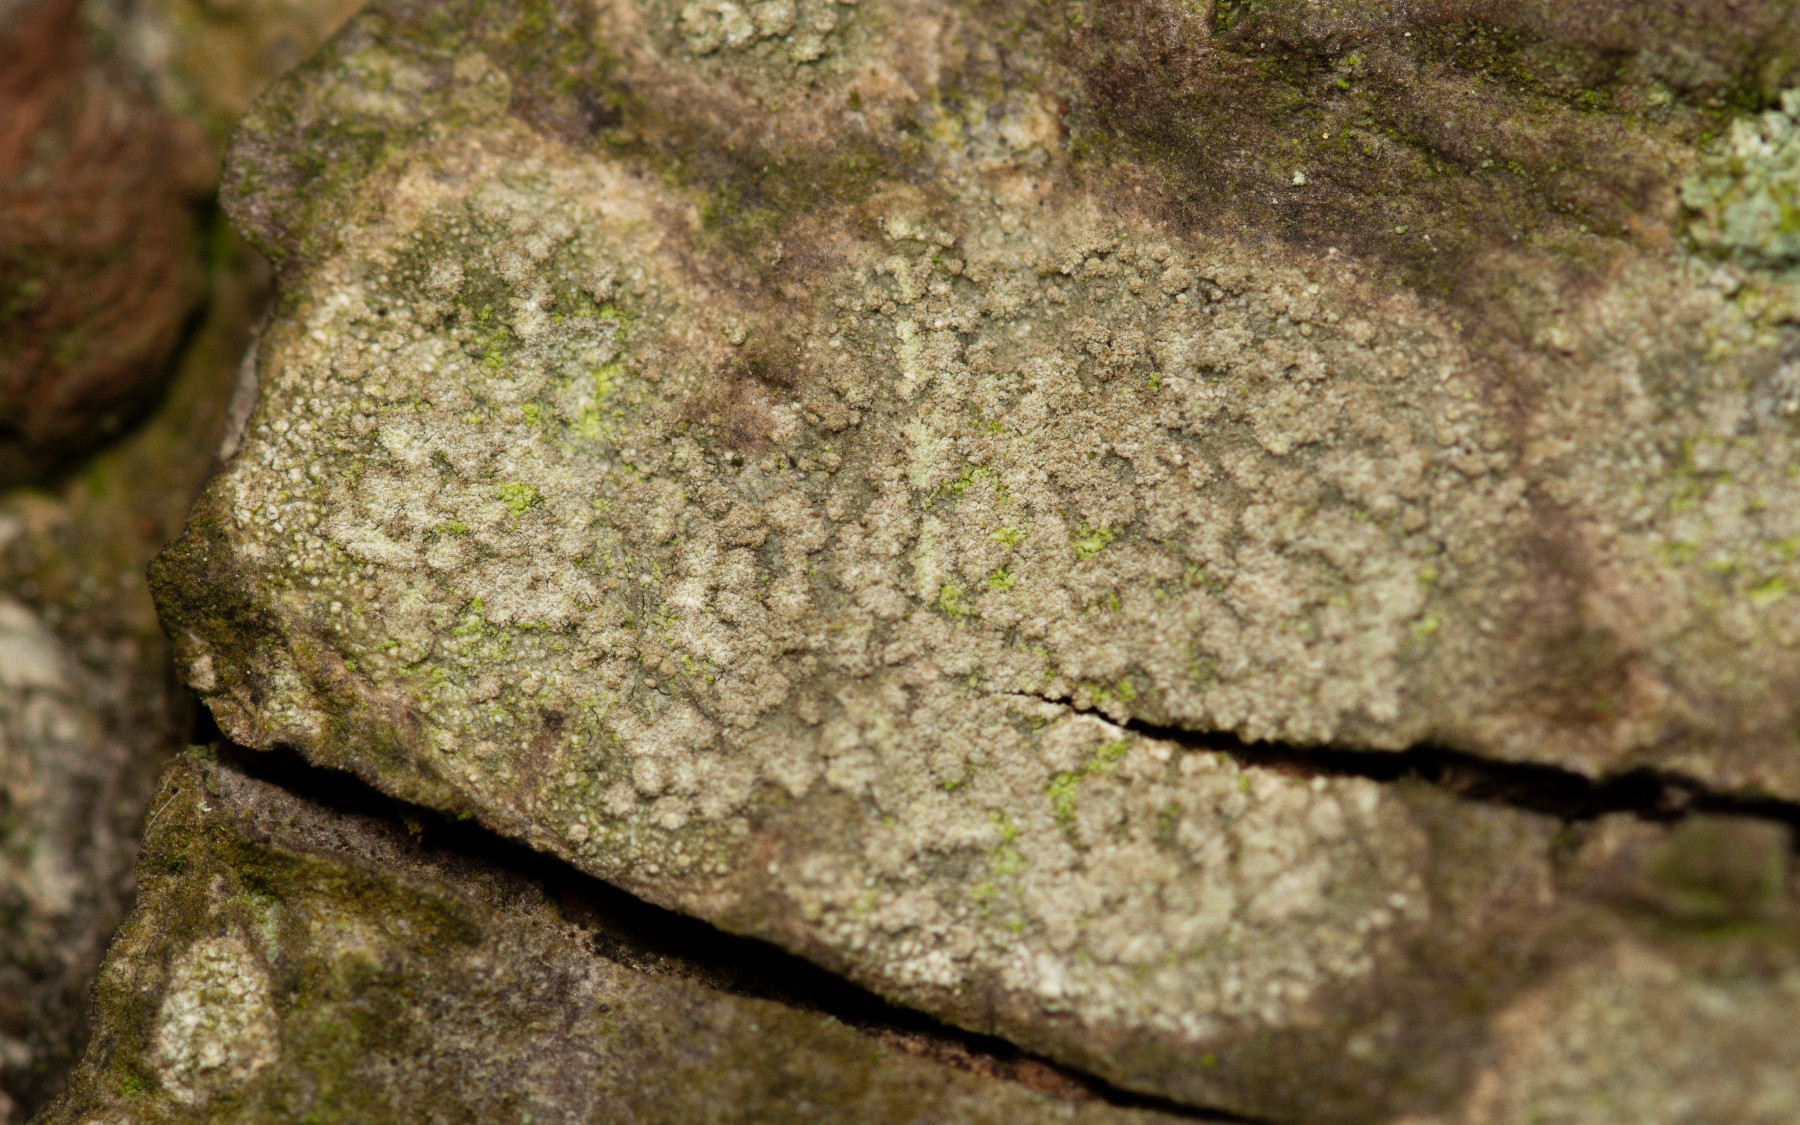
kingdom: Fungi
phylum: Ascomycota
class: Arthoniomycetes
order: Arthoniales
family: Roccellaceae
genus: Dendrographa
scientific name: Dendrographa decolorans
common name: forskelligfarvet skurvelav
